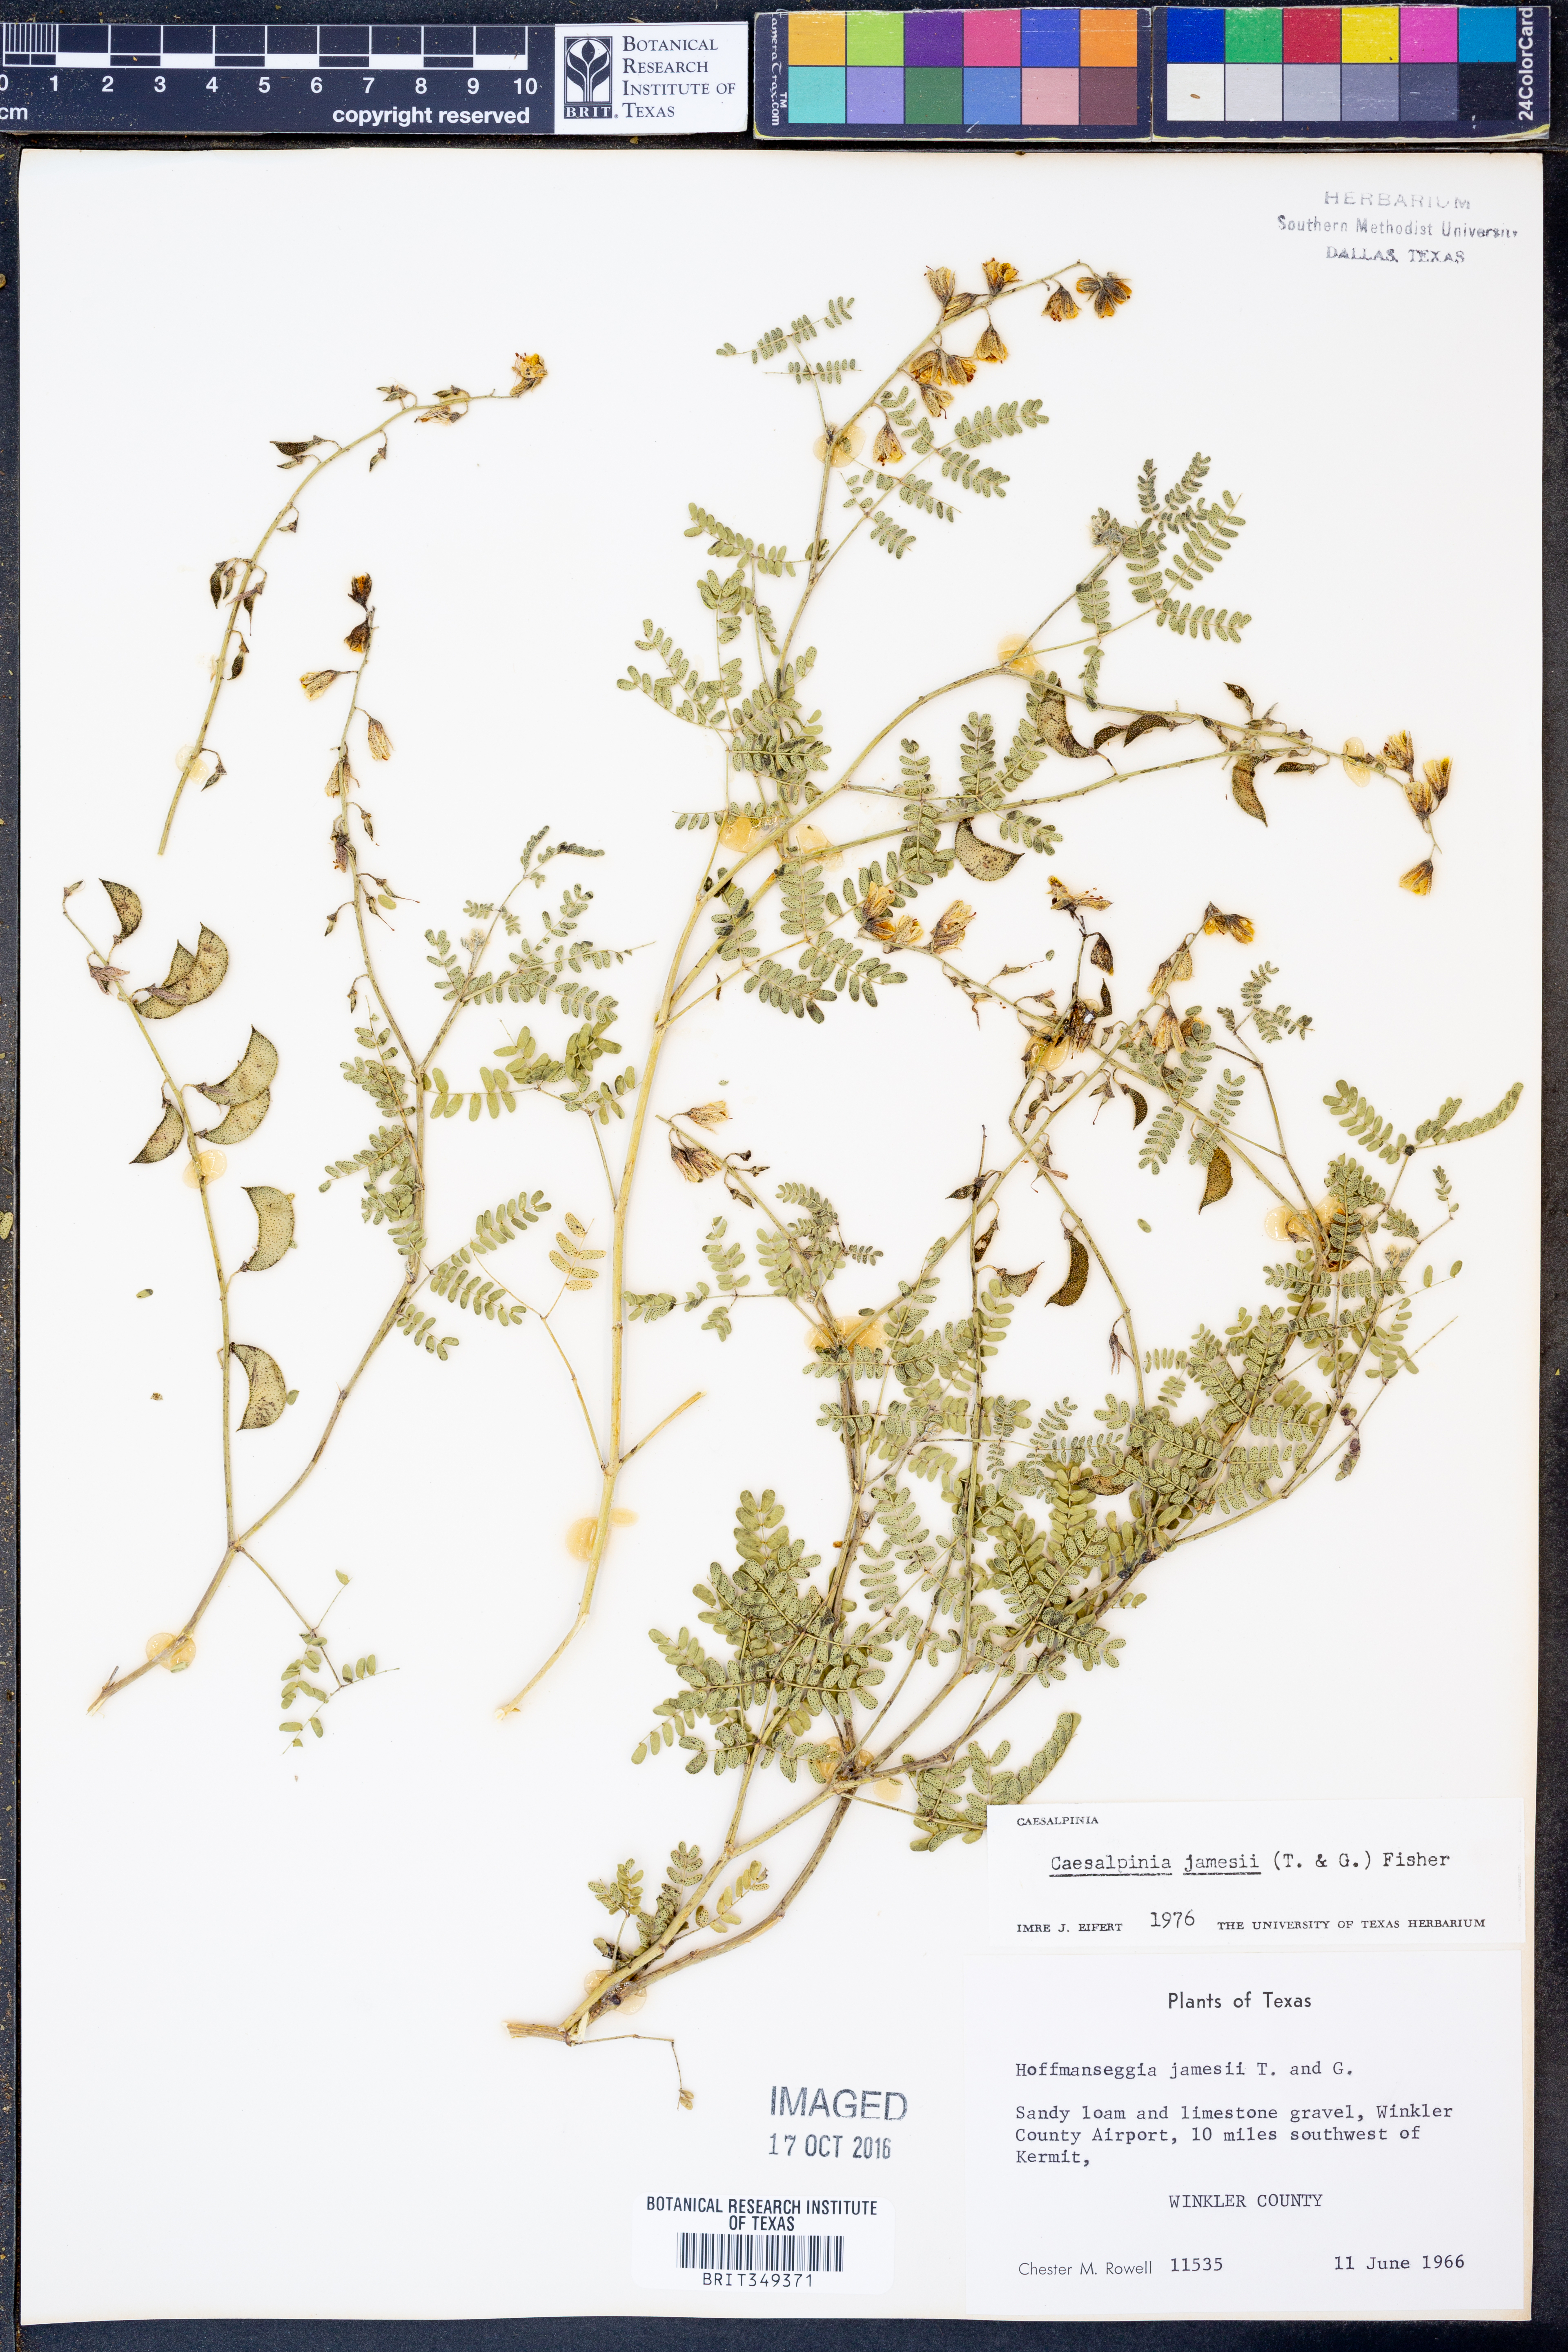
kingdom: Plantae
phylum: Tracheophyta
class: Magnoliopsida
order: Fabales
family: Fabaceae
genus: Pomaria
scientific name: Pomaria jamesii
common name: James' caesalpinia
